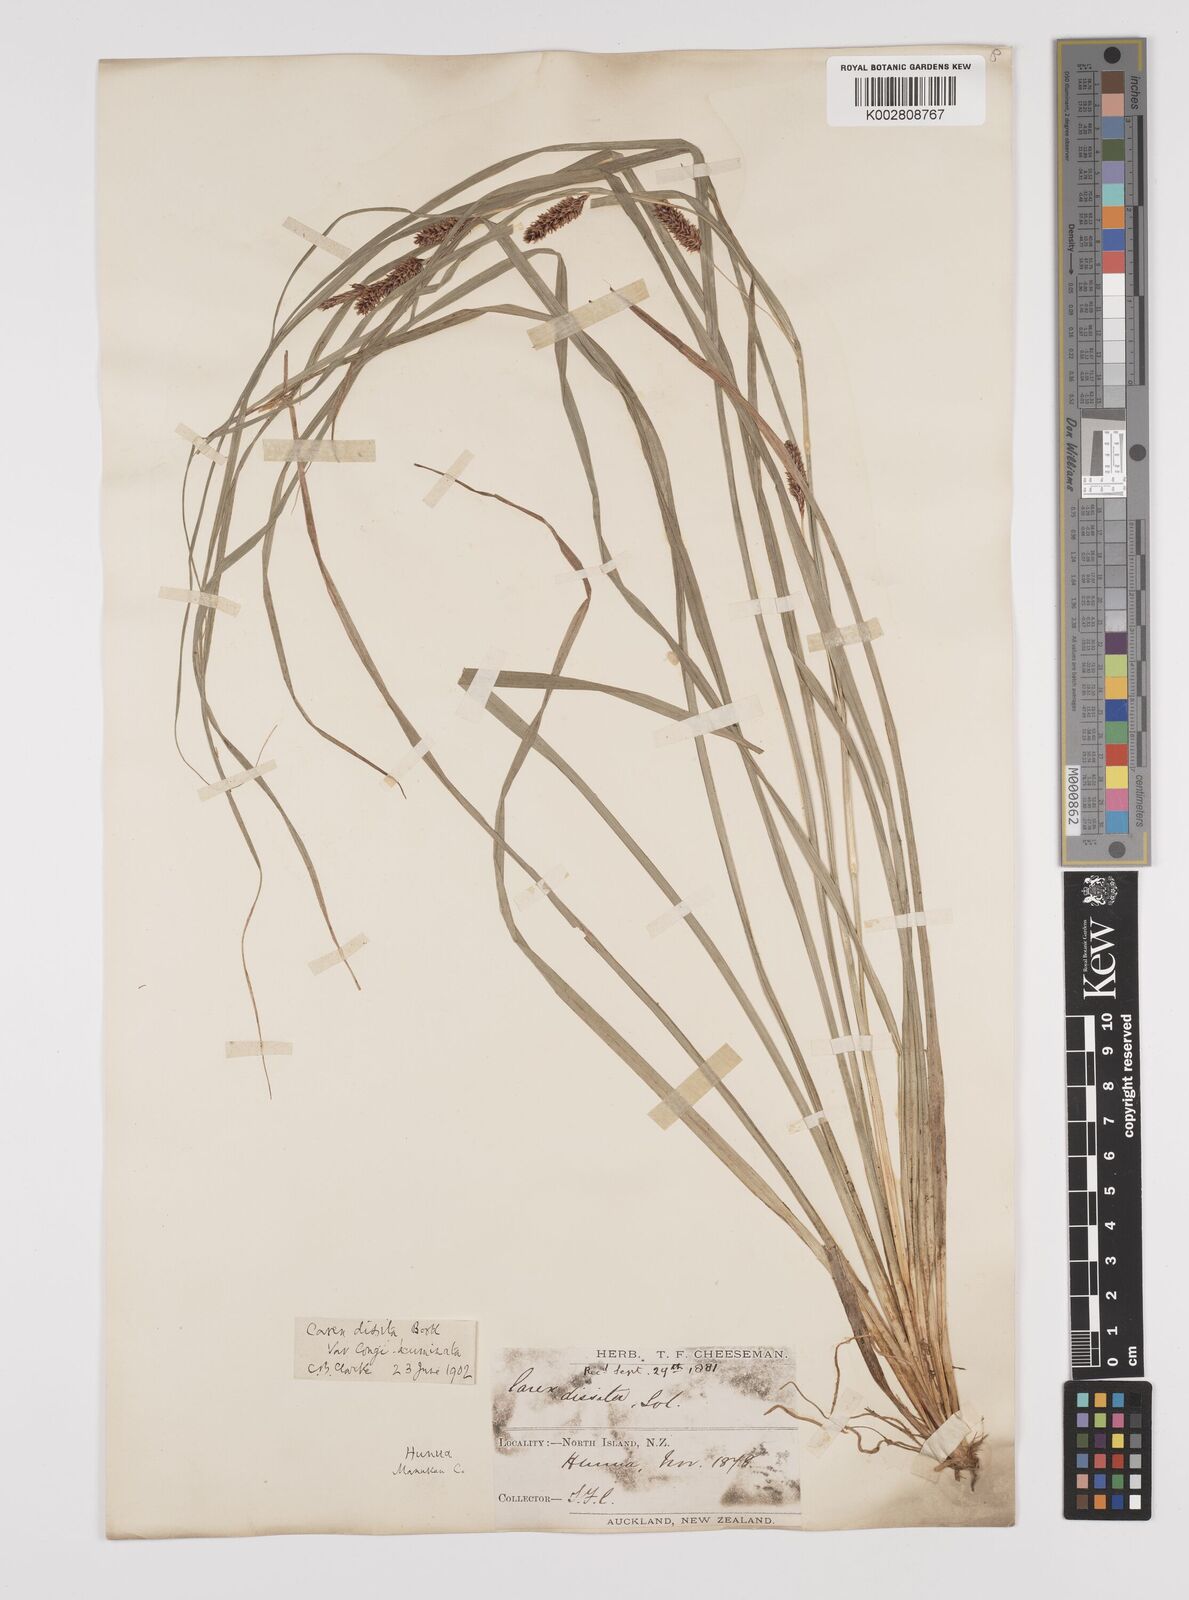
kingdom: Plantae
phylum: Tracheophyta
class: Liliopsida
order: Poales
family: Cyperaceae
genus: Carex
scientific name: Carex dissita
